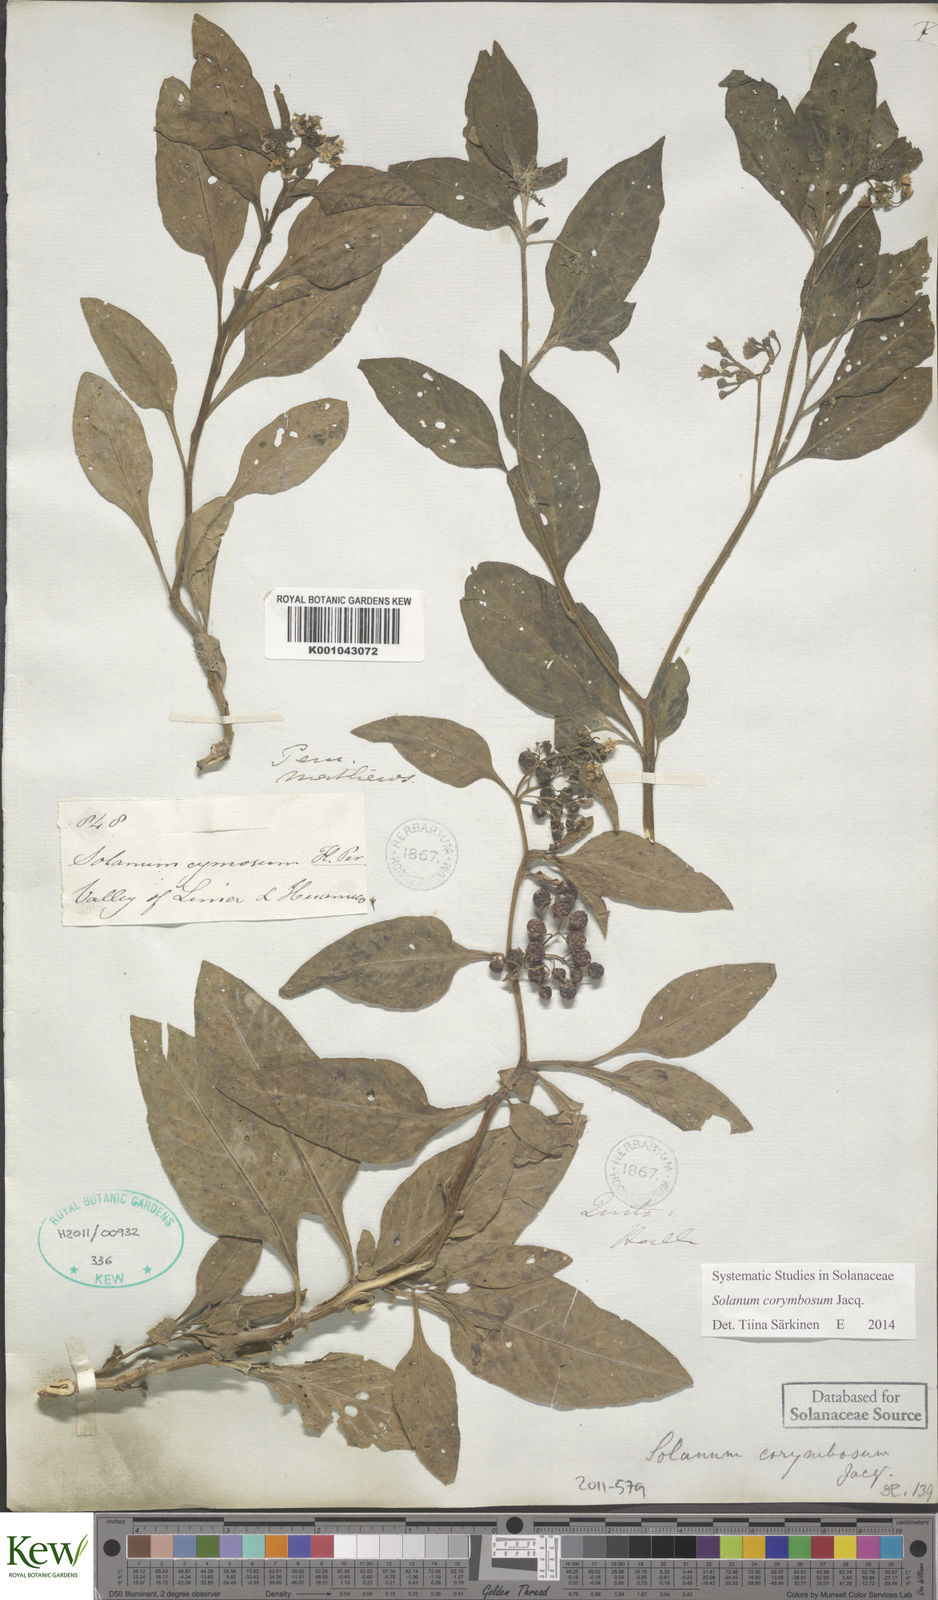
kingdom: Plantae
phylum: Tracheophyta
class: Magnoliopsida
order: Solanales
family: Solanaceae
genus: Solanum
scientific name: Solanum corymbosum
